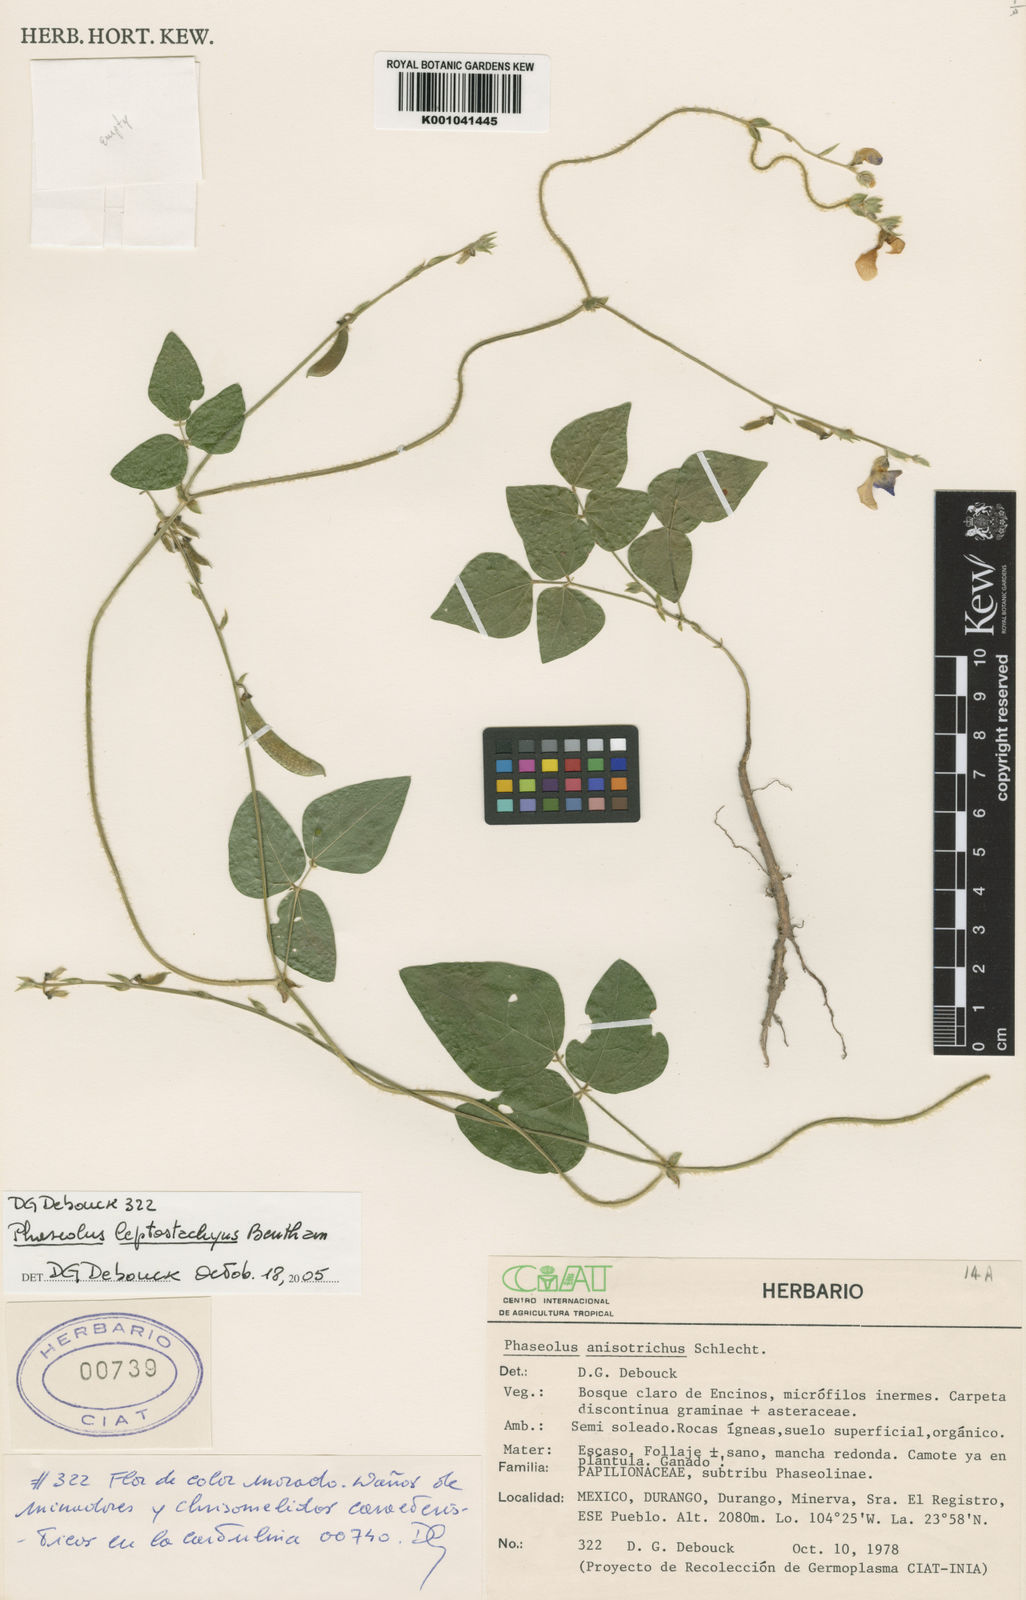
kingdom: Plantae
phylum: Tracheophyta
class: Magnoliopsida
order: Fabales
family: Fabaceae
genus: Phaseolus
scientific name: Phaseolus
